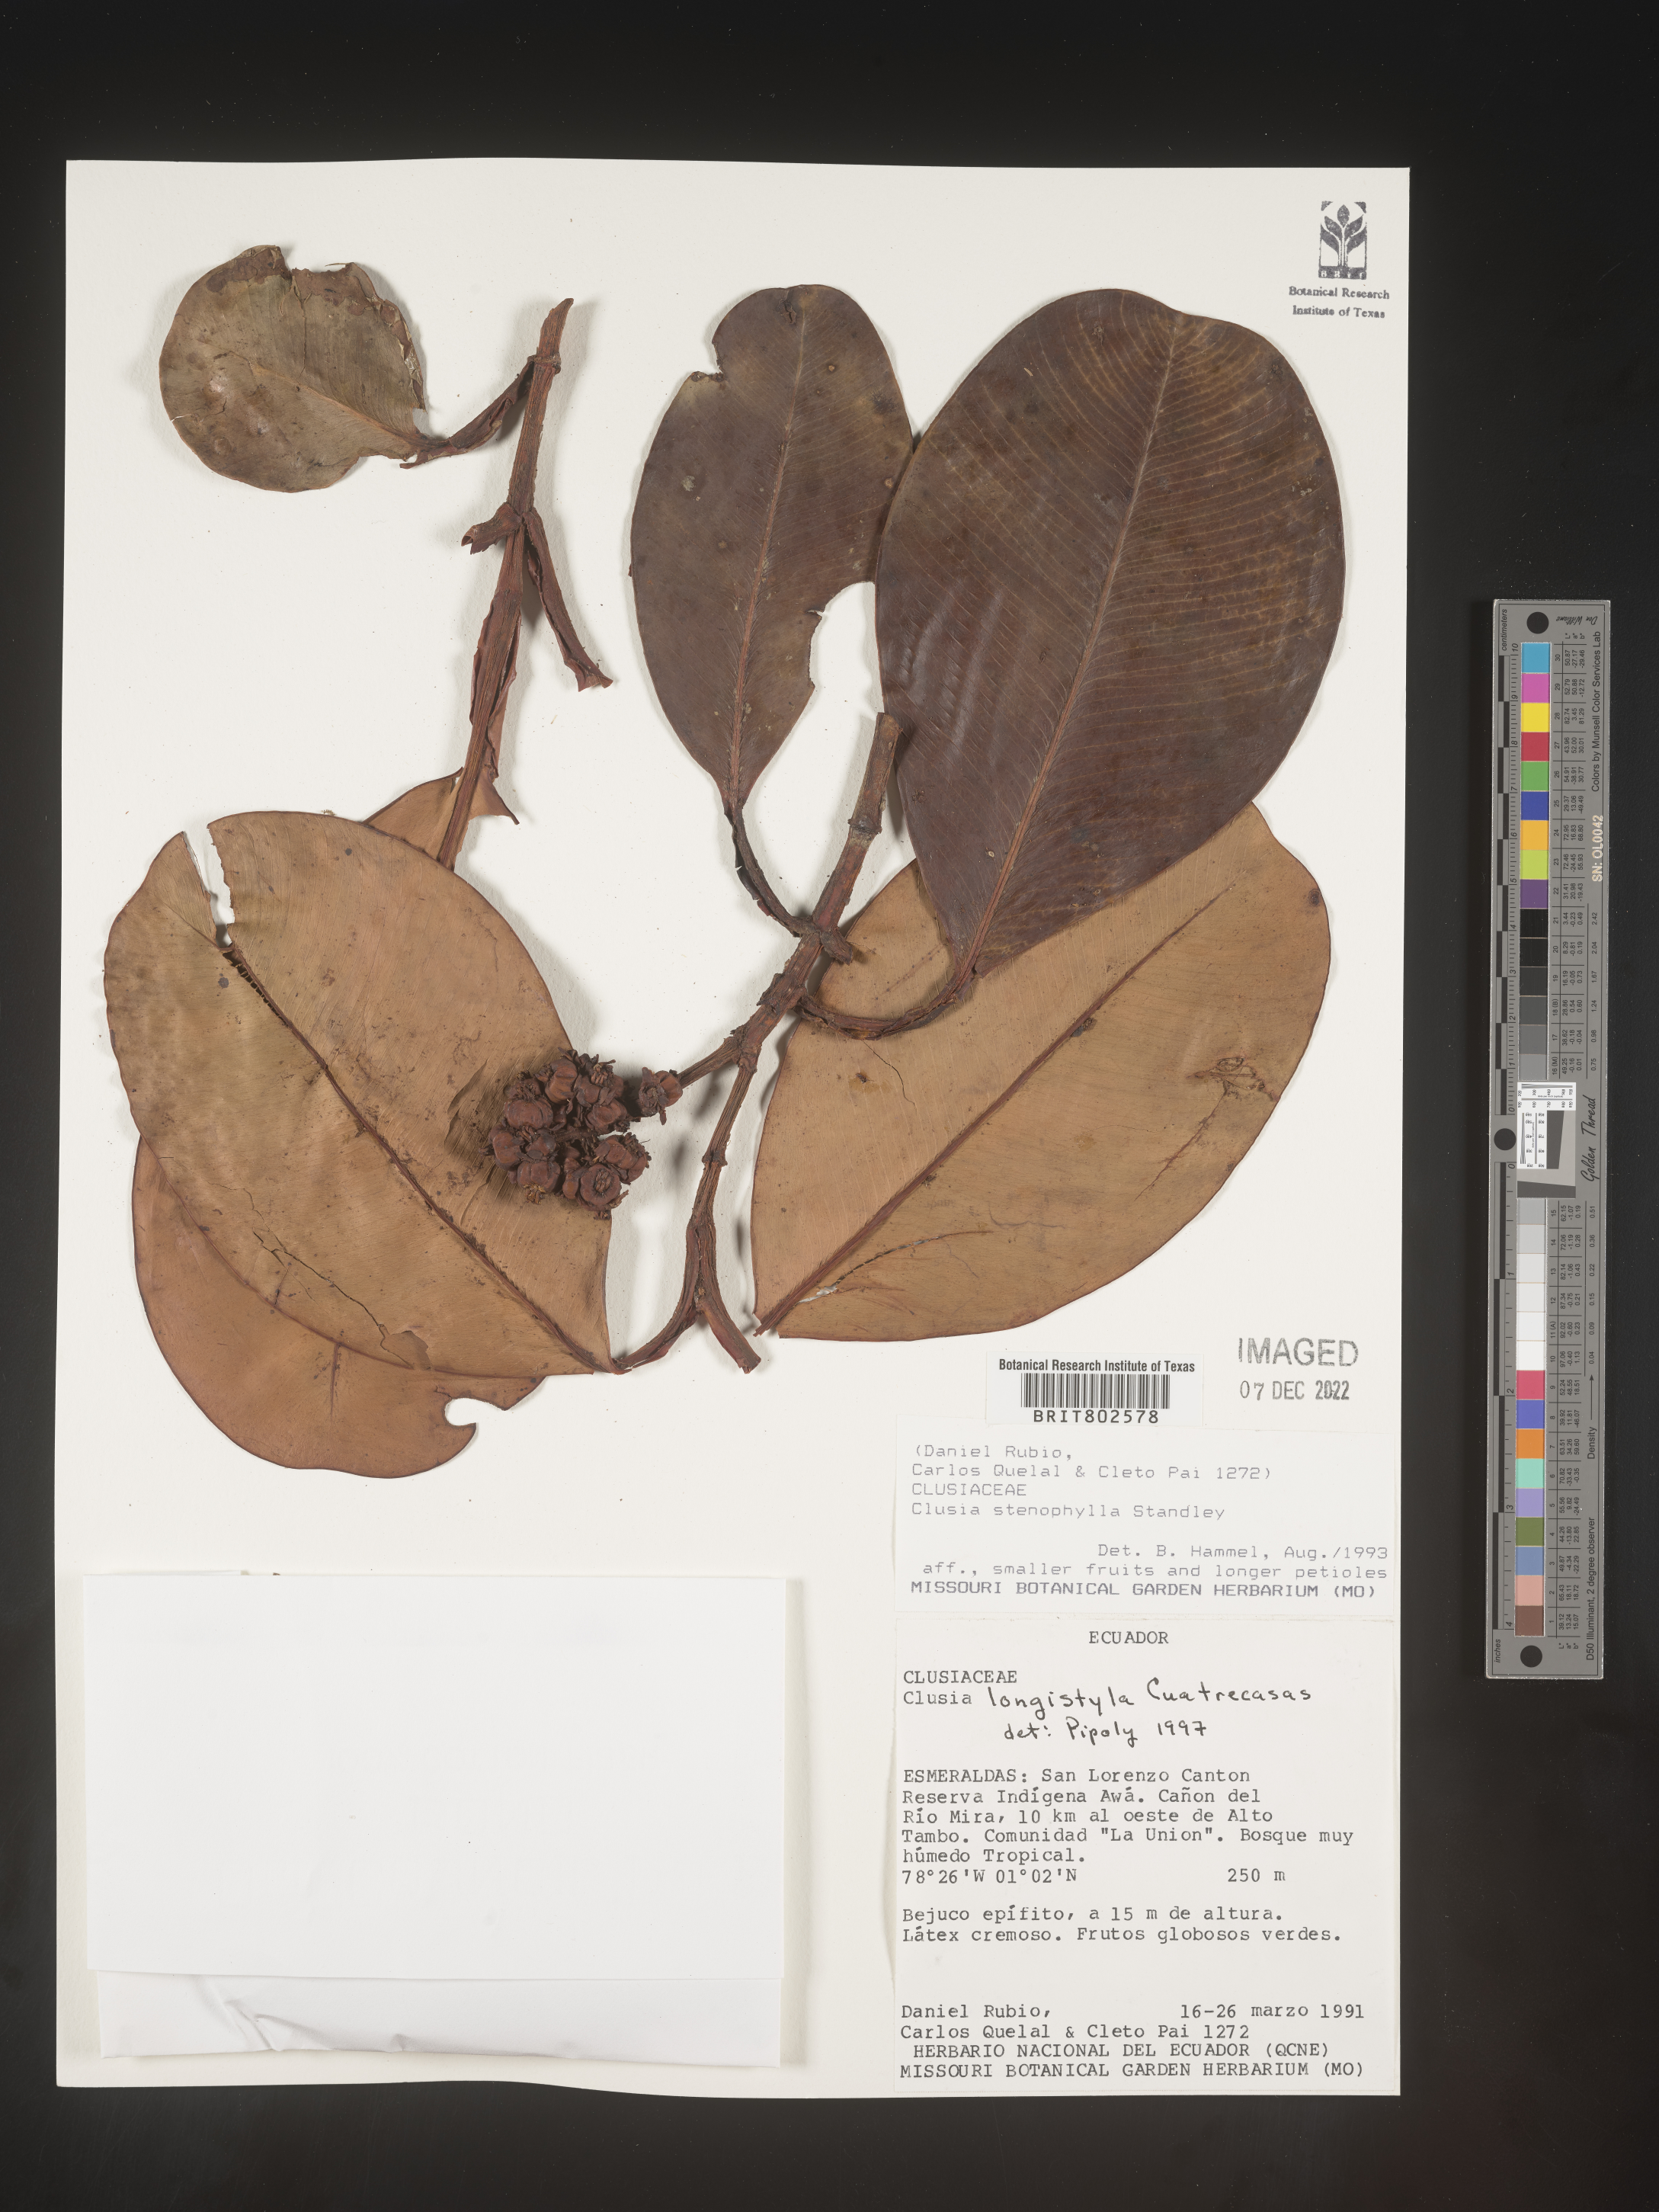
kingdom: Plantae
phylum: Tracheophyta
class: Magnoliopsida
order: Malpighiales
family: Clusiaceae
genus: Clusia
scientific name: Clusia rotundata
